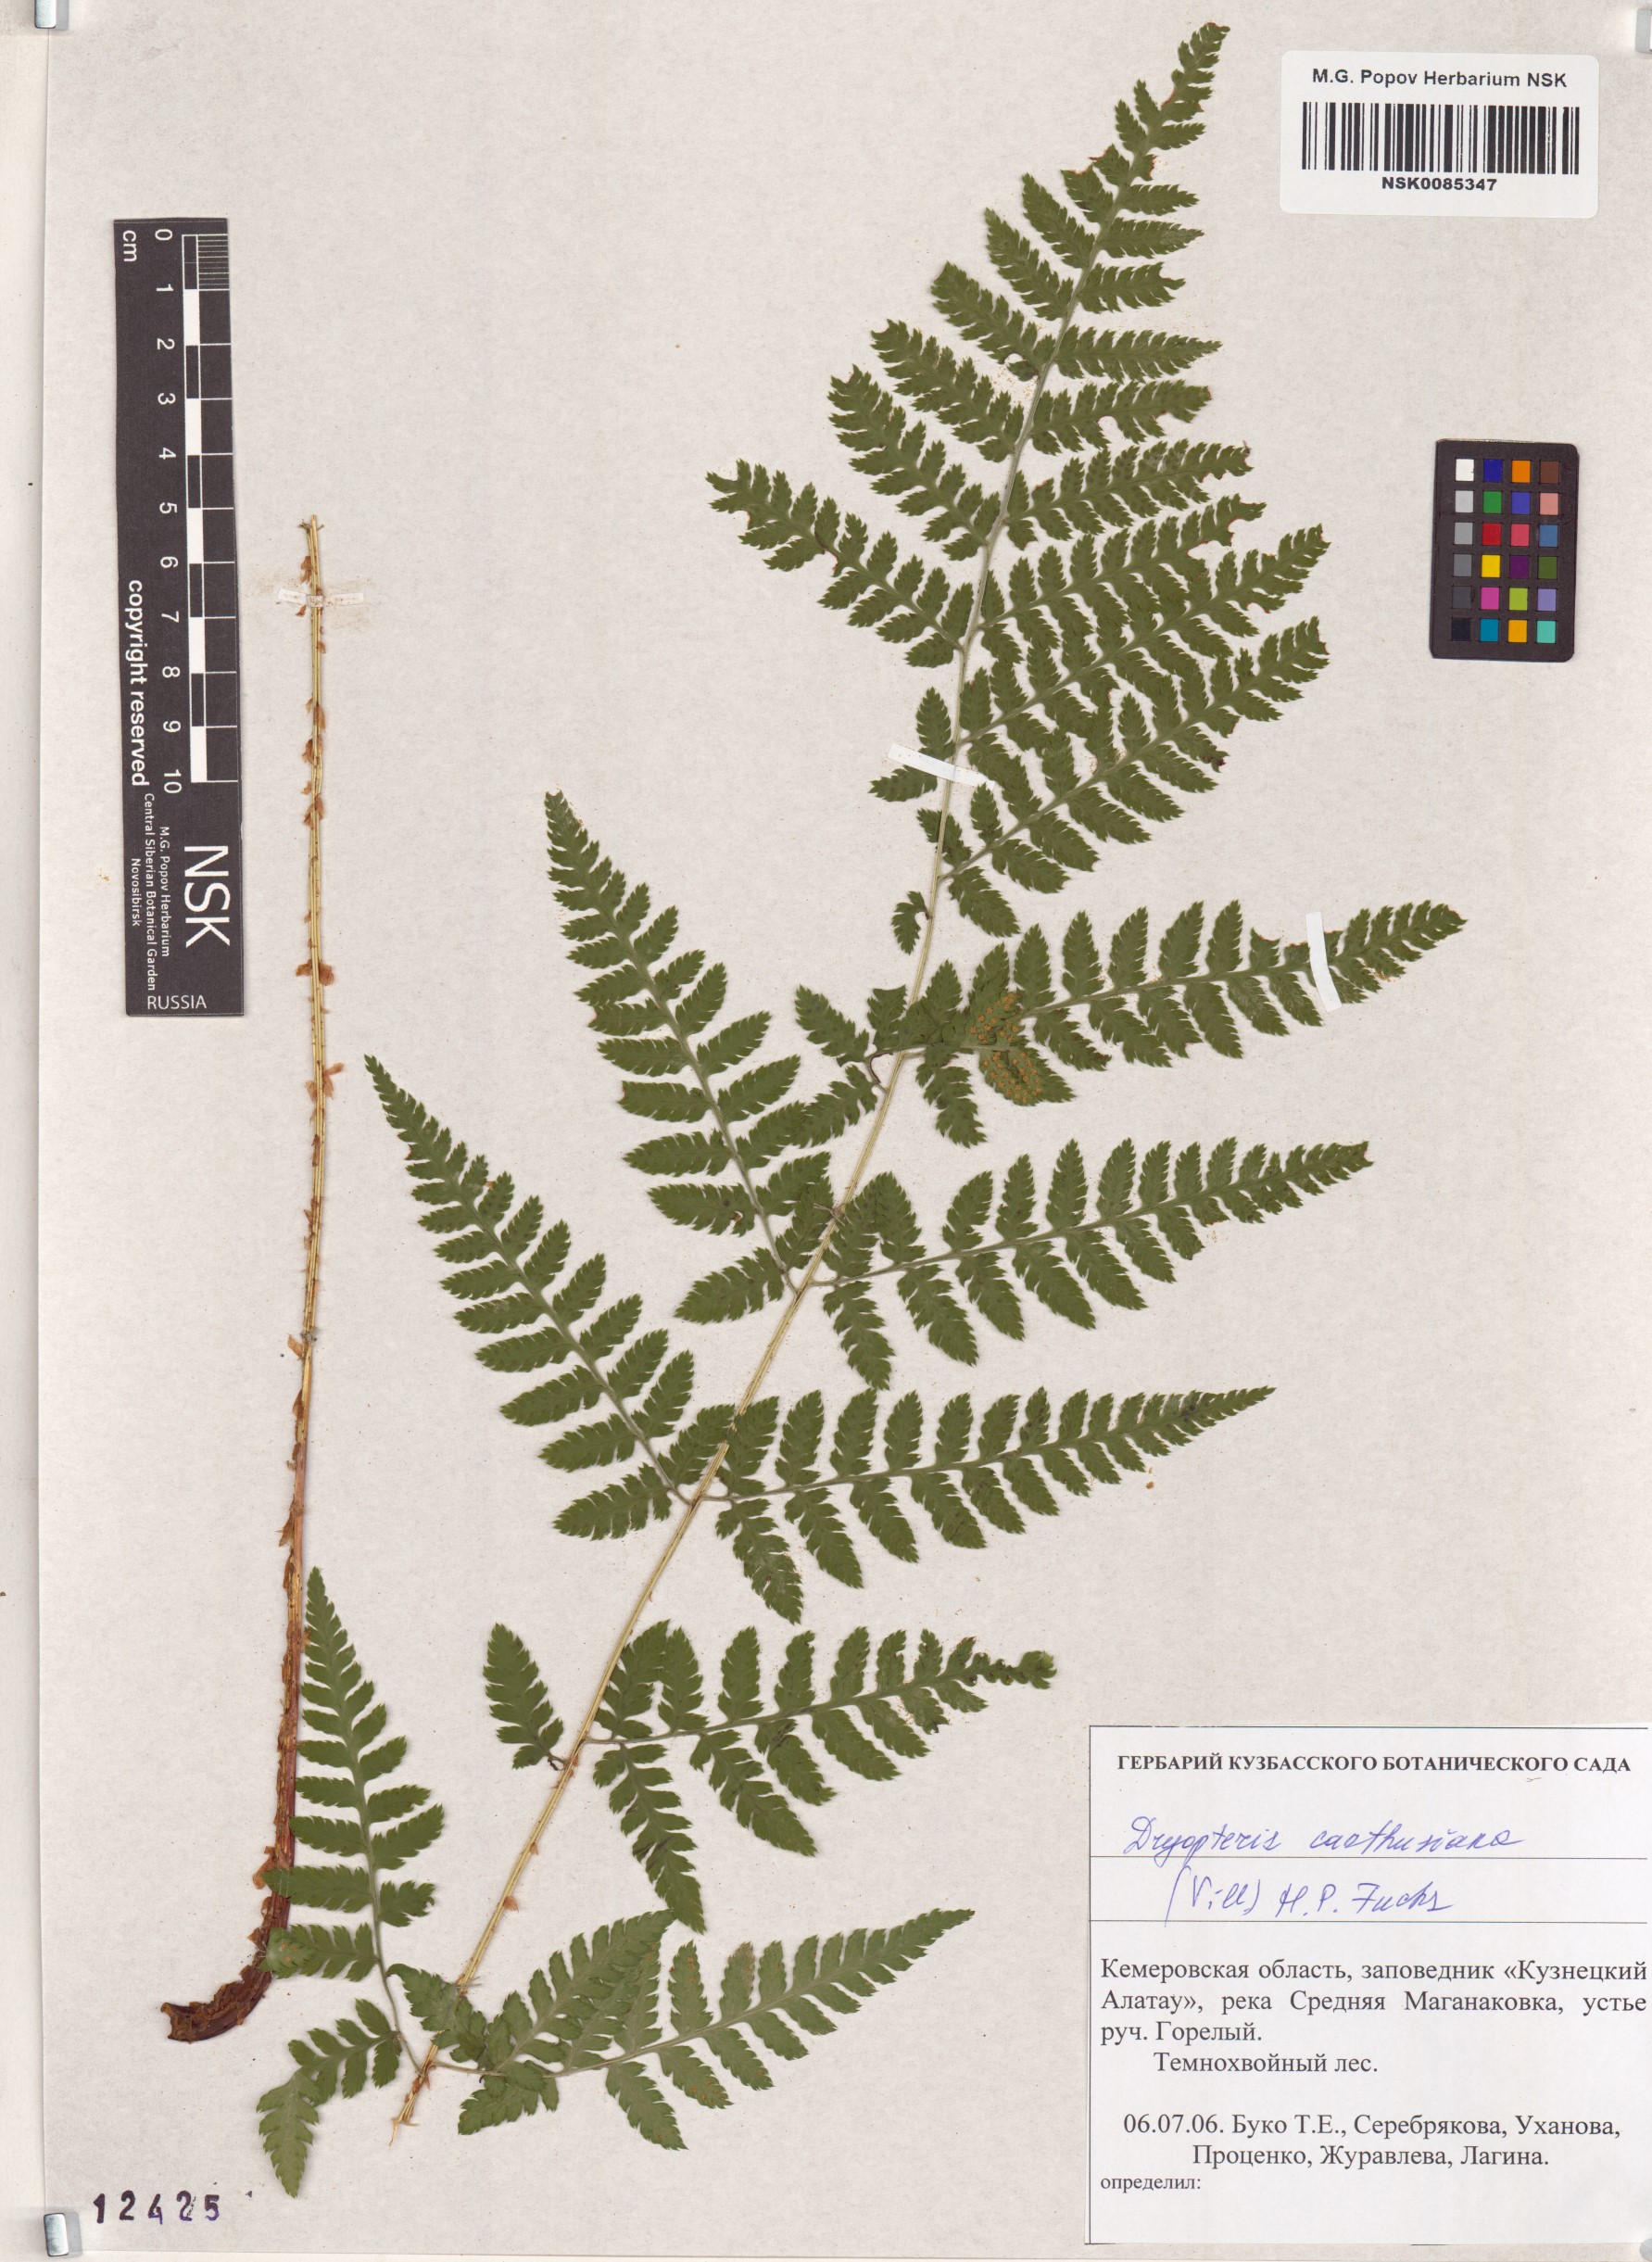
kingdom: Plantae
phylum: Tracheophyta
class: Polypodiopsida
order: Polypodiales
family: Dryopteridaceae
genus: Dryopteris
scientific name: Dryopteris carthusiana
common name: Narrow buckler-fern
